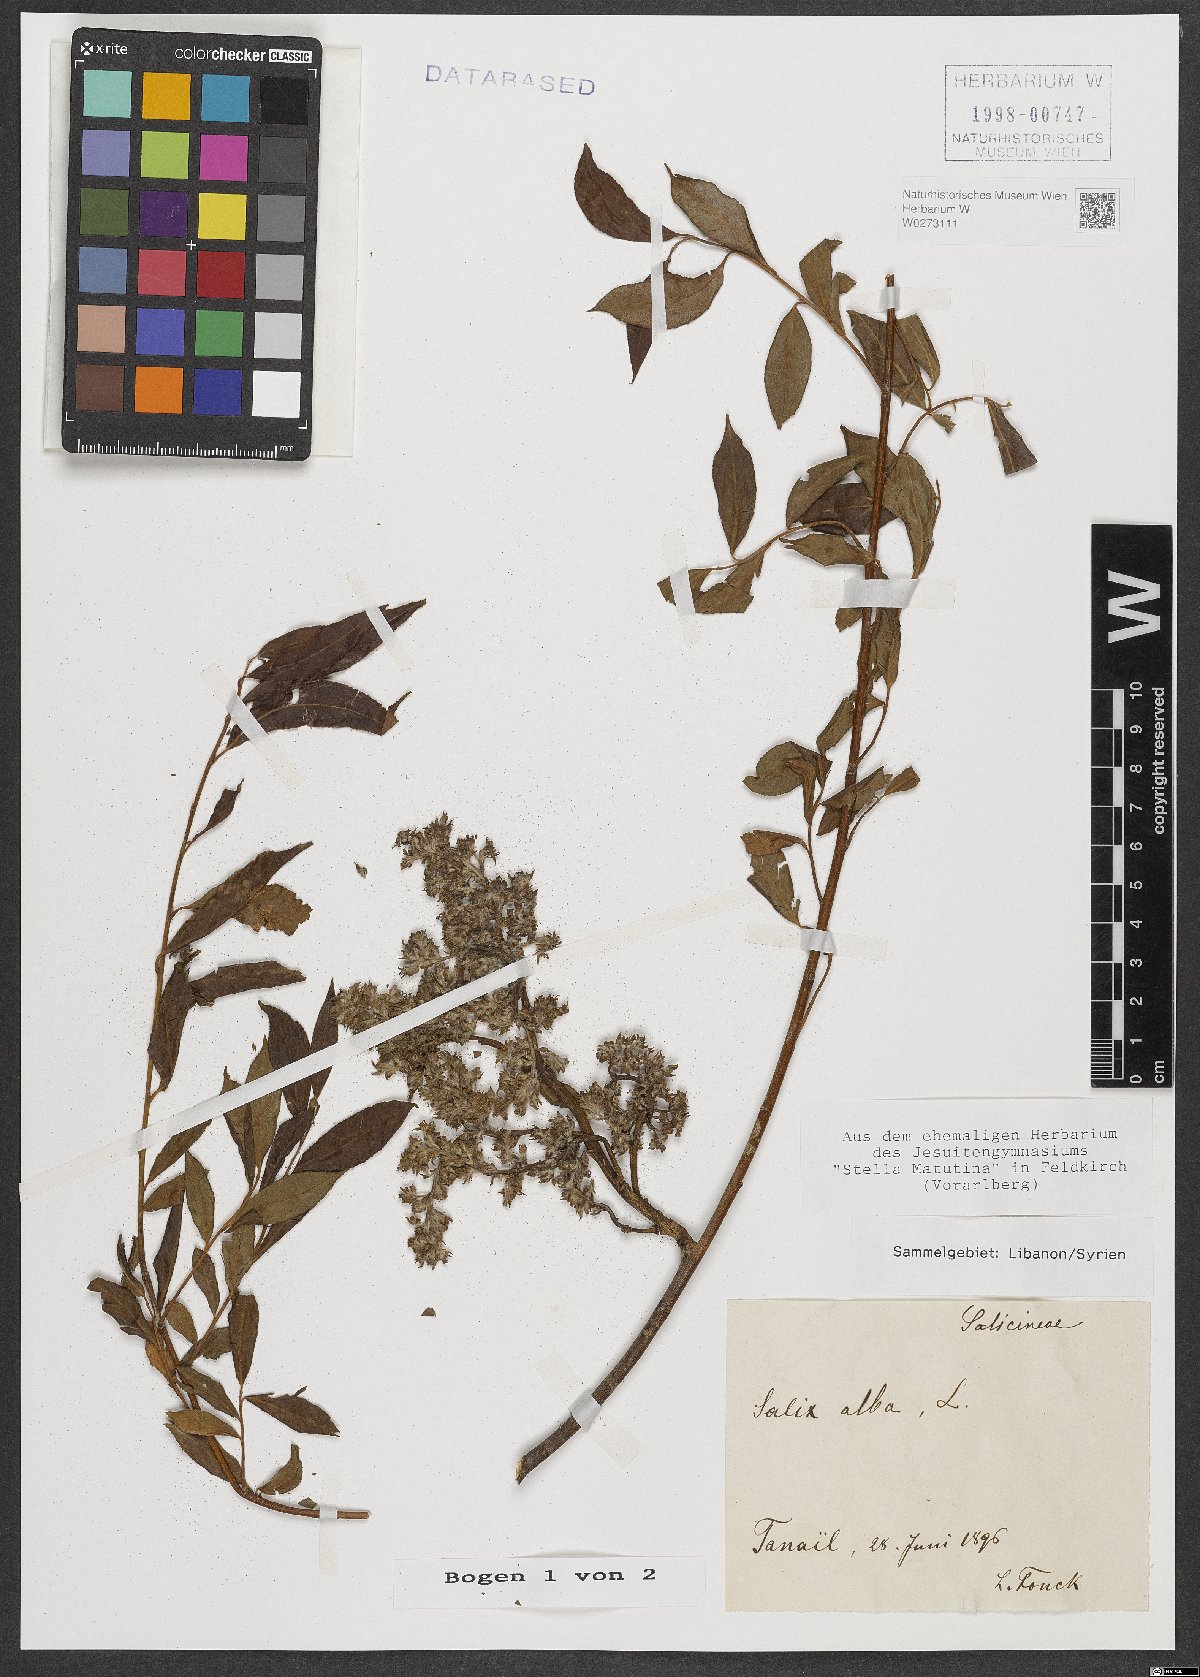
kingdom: Plantae
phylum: Tracheophyta
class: Magnoliopsida
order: Malpighiales
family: Salicaceae
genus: Salix
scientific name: Salix alba
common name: White willow
